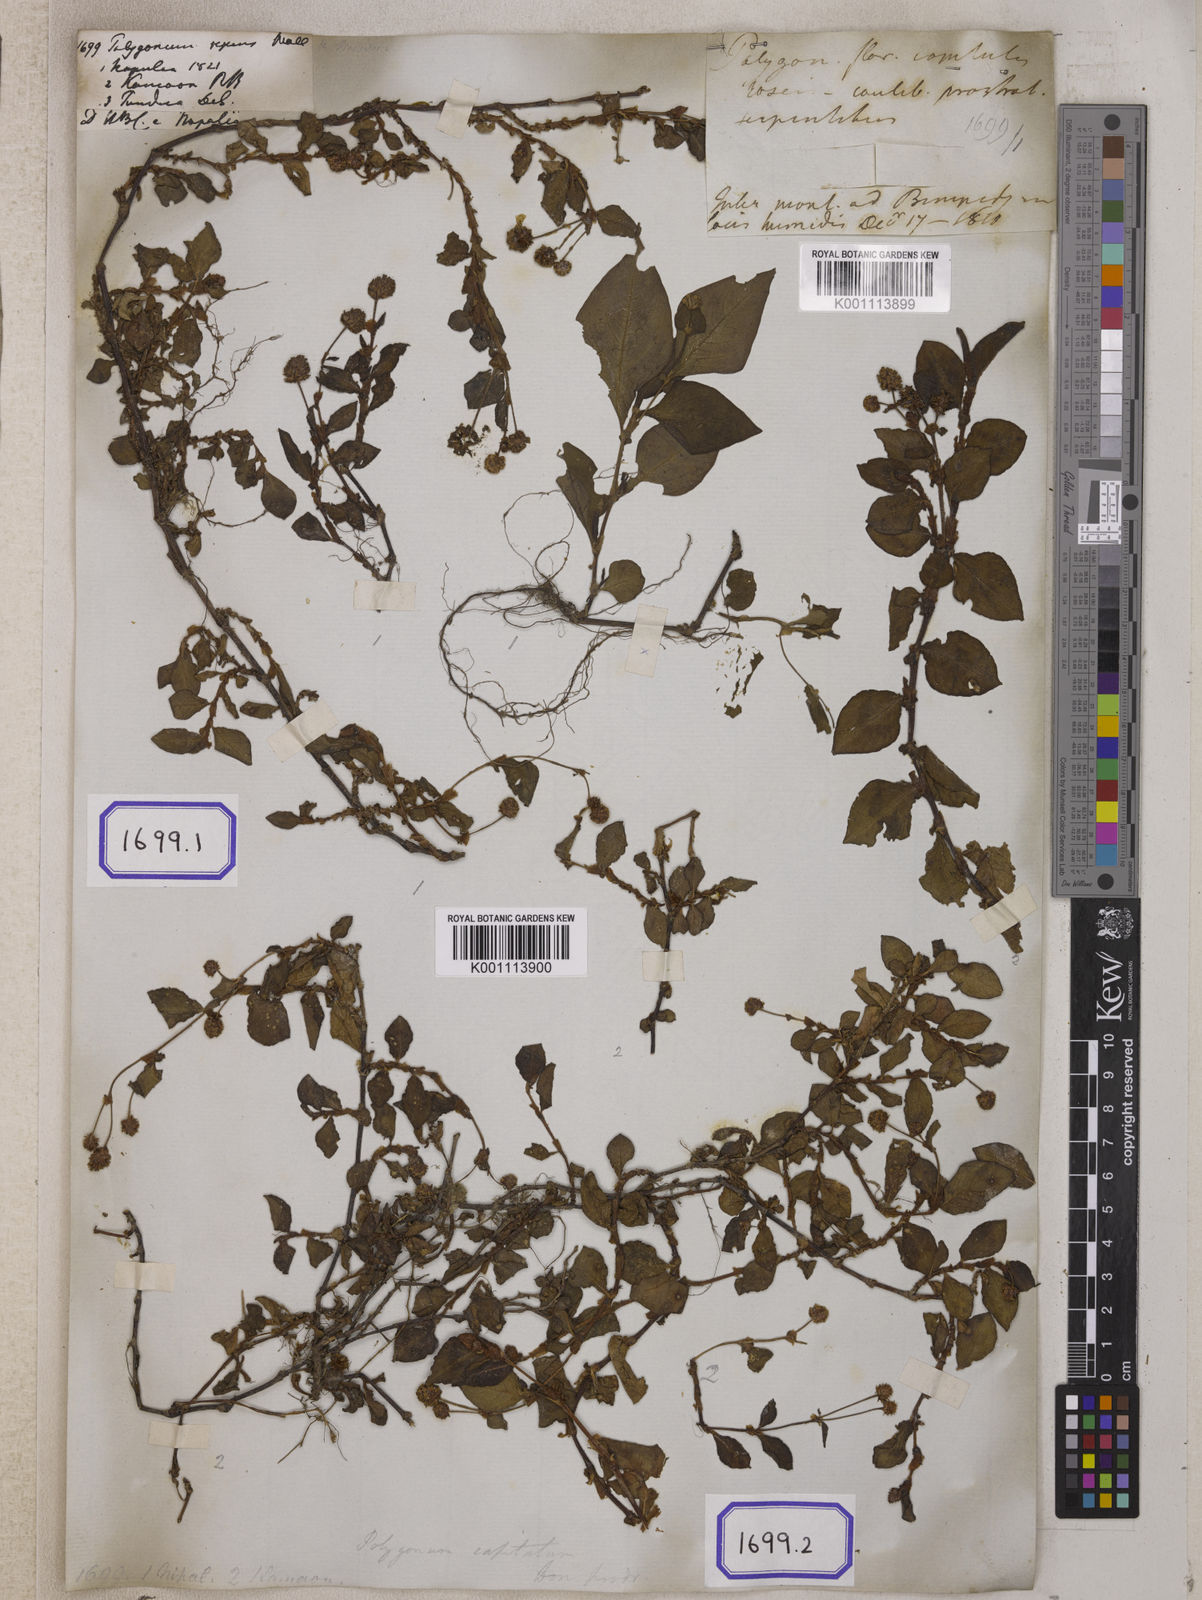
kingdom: Plantae
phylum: Tracheophyta
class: Magnoliopsida
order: Caryophyllales
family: Polygonaceae
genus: Polygonum
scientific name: Polygonum
